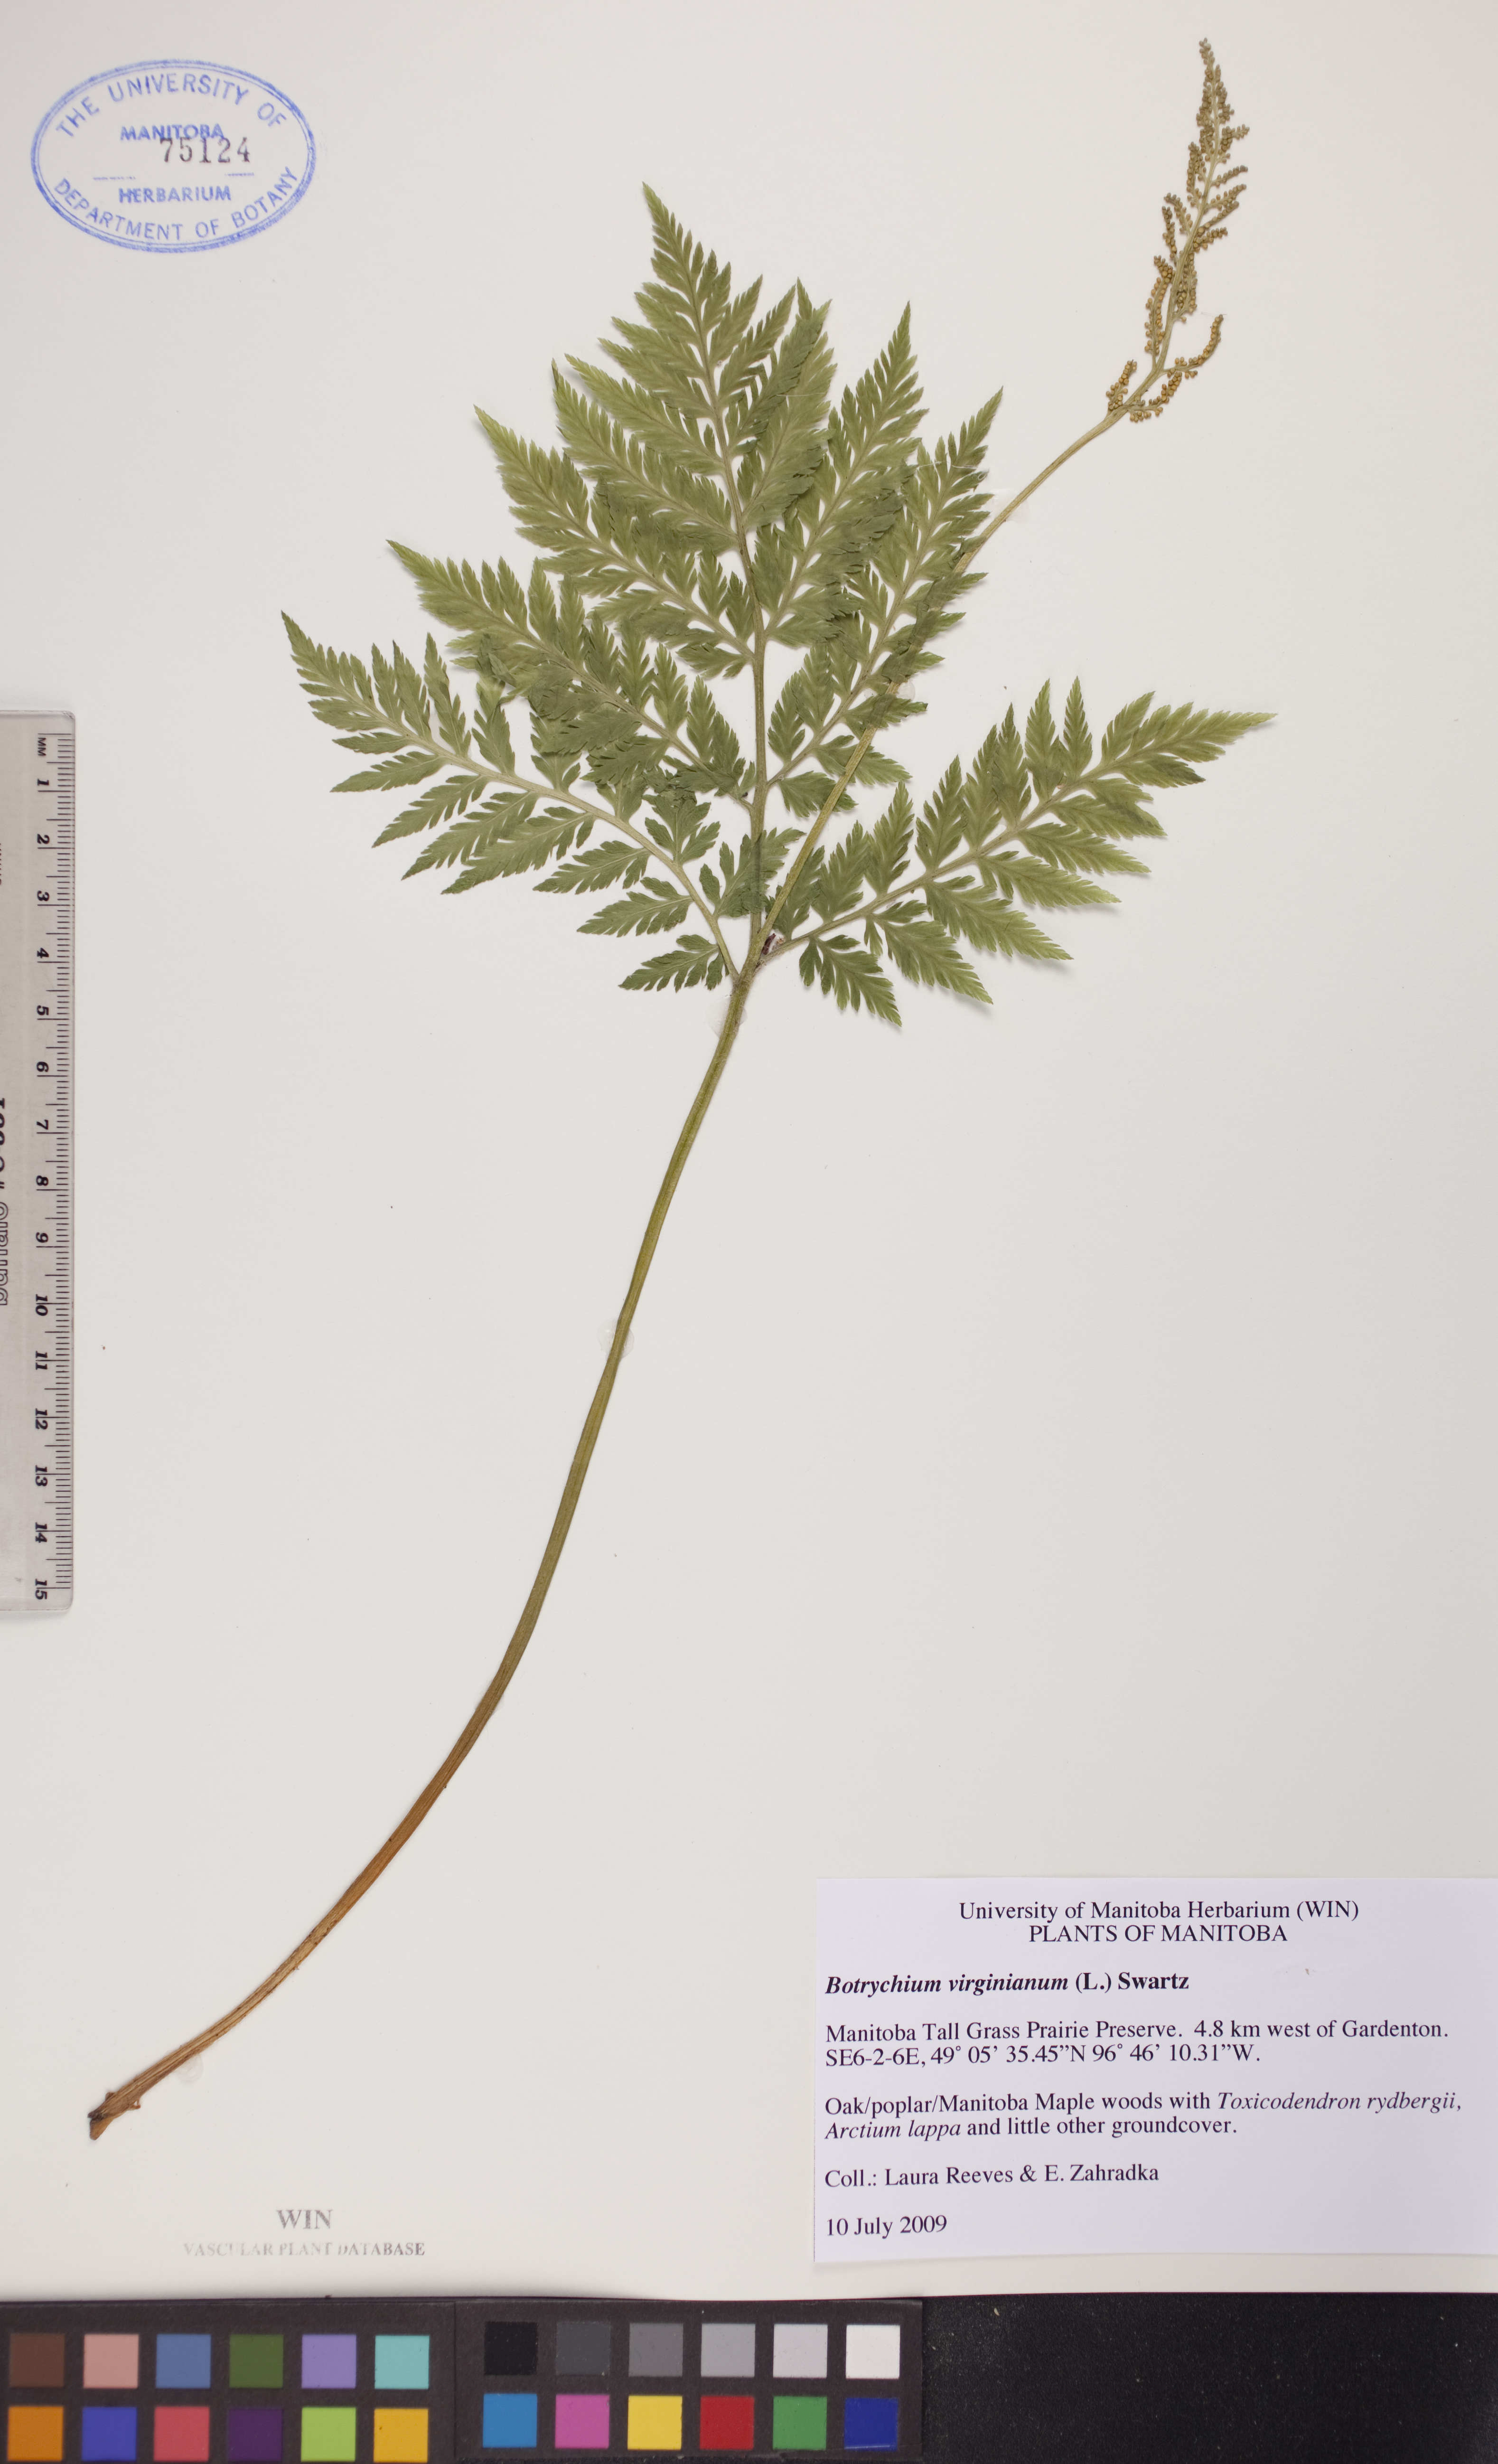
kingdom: Plantae
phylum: Tracheophyta
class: Polypodiopsida
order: Ophioglossales
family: Ophioglossaceae
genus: Botrypus
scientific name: Botrypus virginianus
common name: Common grapefern
